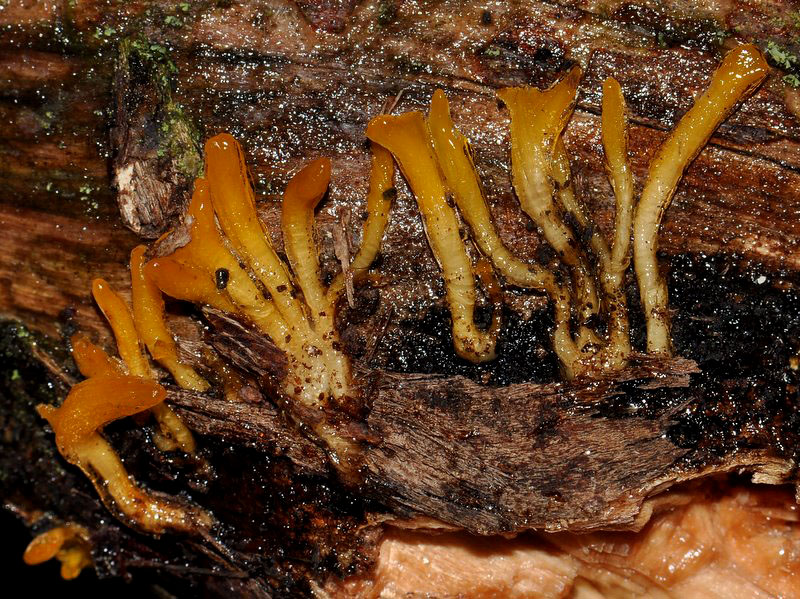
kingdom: Fungi
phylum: Basidiomycota
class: Dacrymycetes
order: Dacrymycetales
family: Dacrymycetaceae
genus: Calocera
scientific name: Calocera cornea
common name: liden guldgaffel
